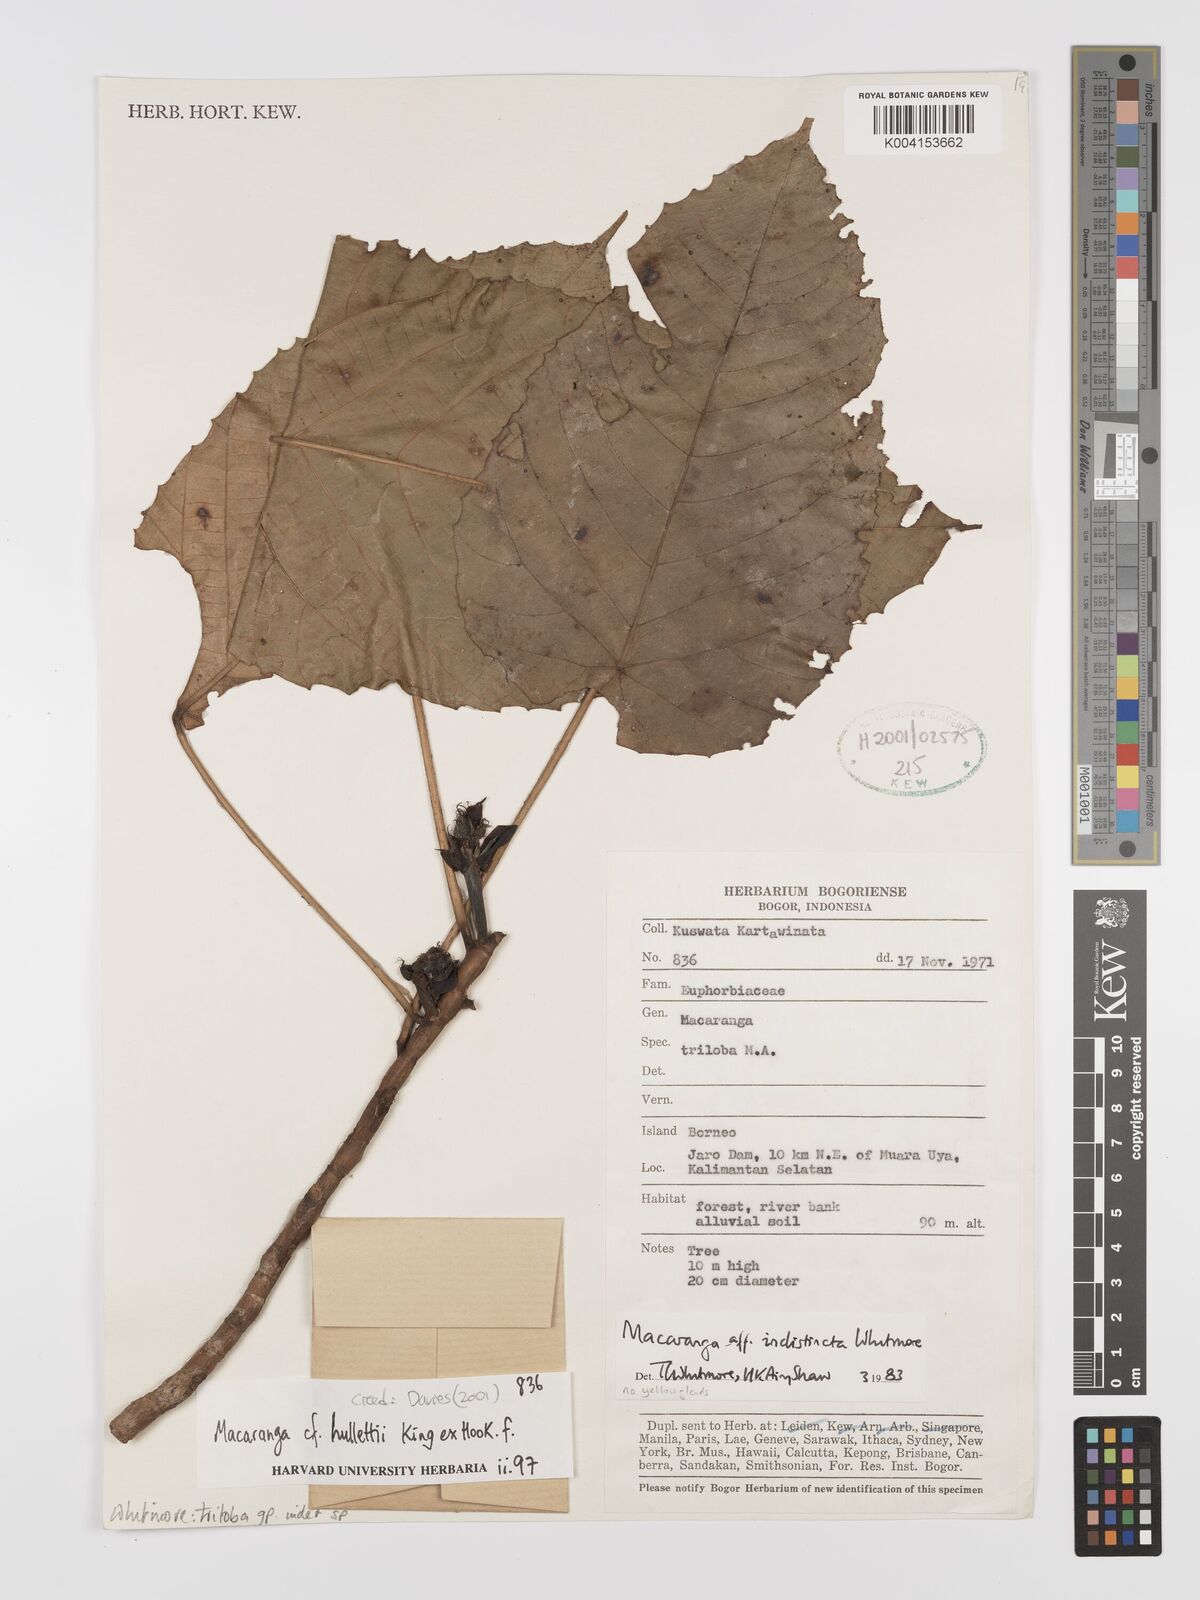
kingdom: Plantae
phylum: Tracheophyta
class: Magnoliopsida
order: Malpighiales
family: Euphorbiaceae
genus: Macaranga
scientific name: Macaranga triloba
